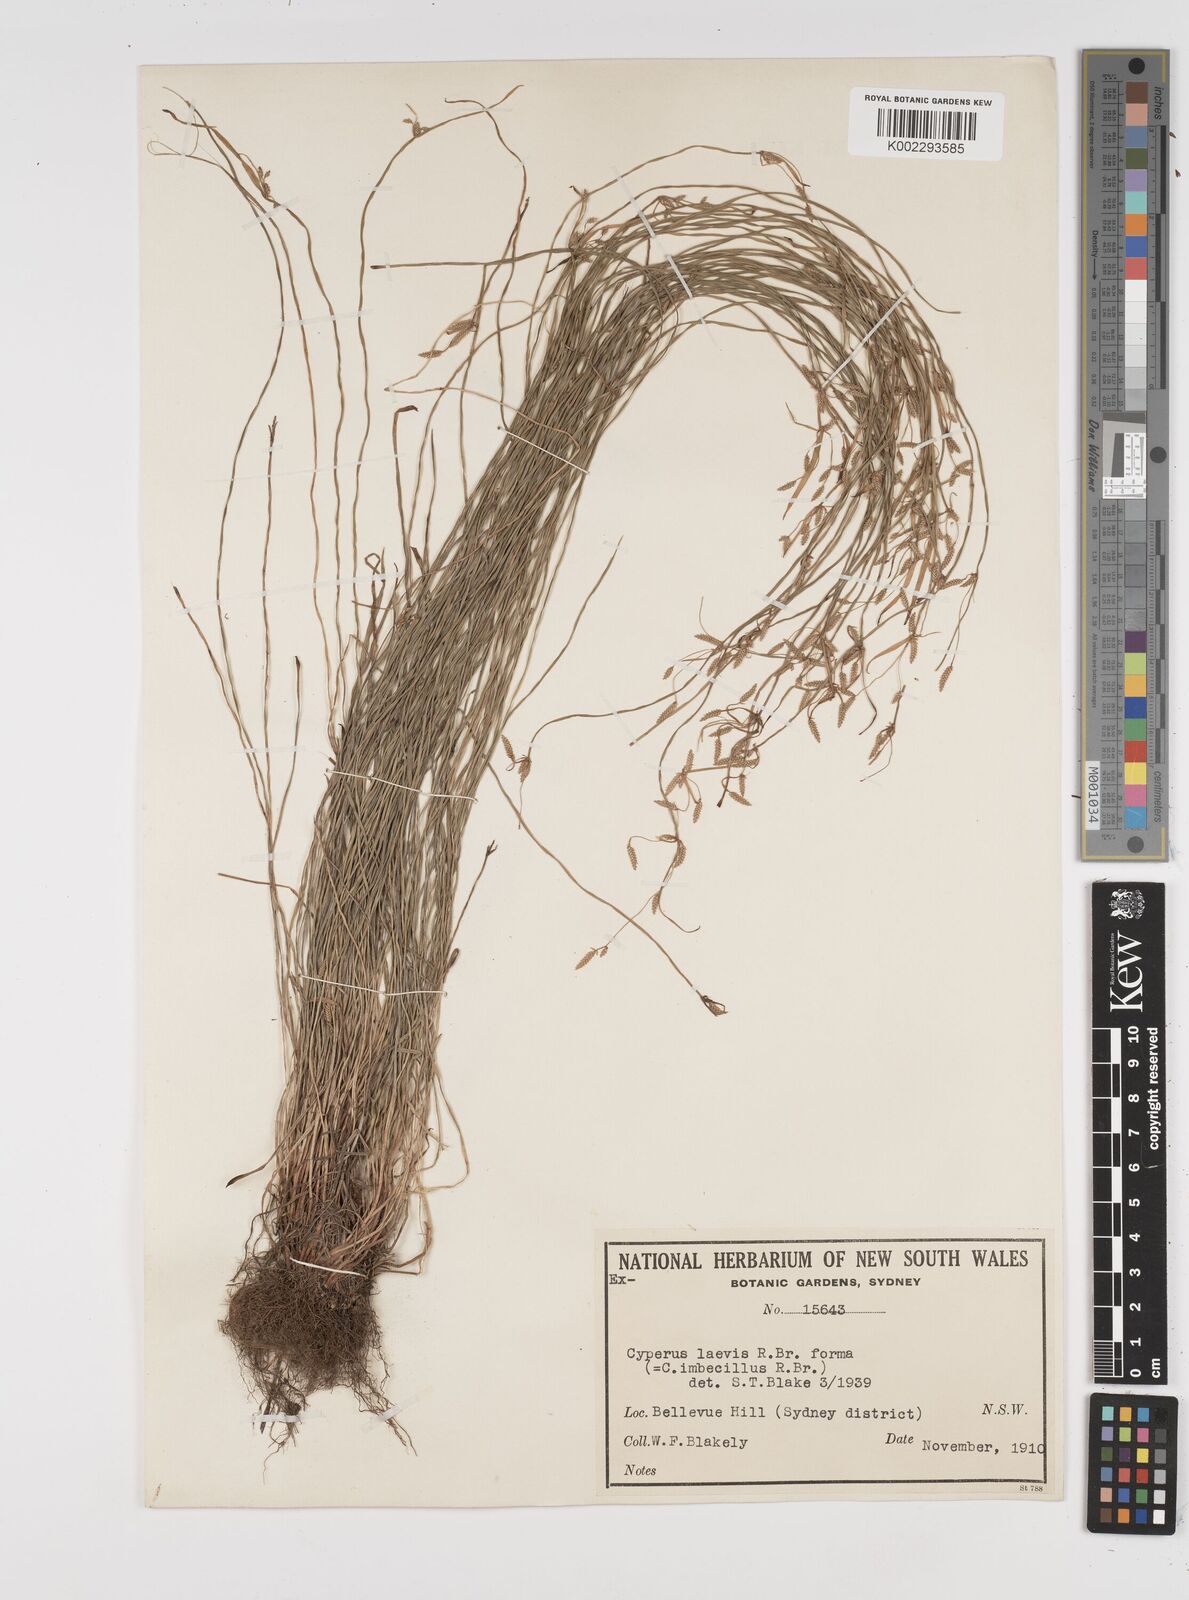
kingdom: Plantae
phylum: Tracheophyta
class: Liliopsida
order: Poales
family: Cyperaceae
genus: Cyperus
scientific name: Cyperus trinervis
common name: Australian flatsedge
